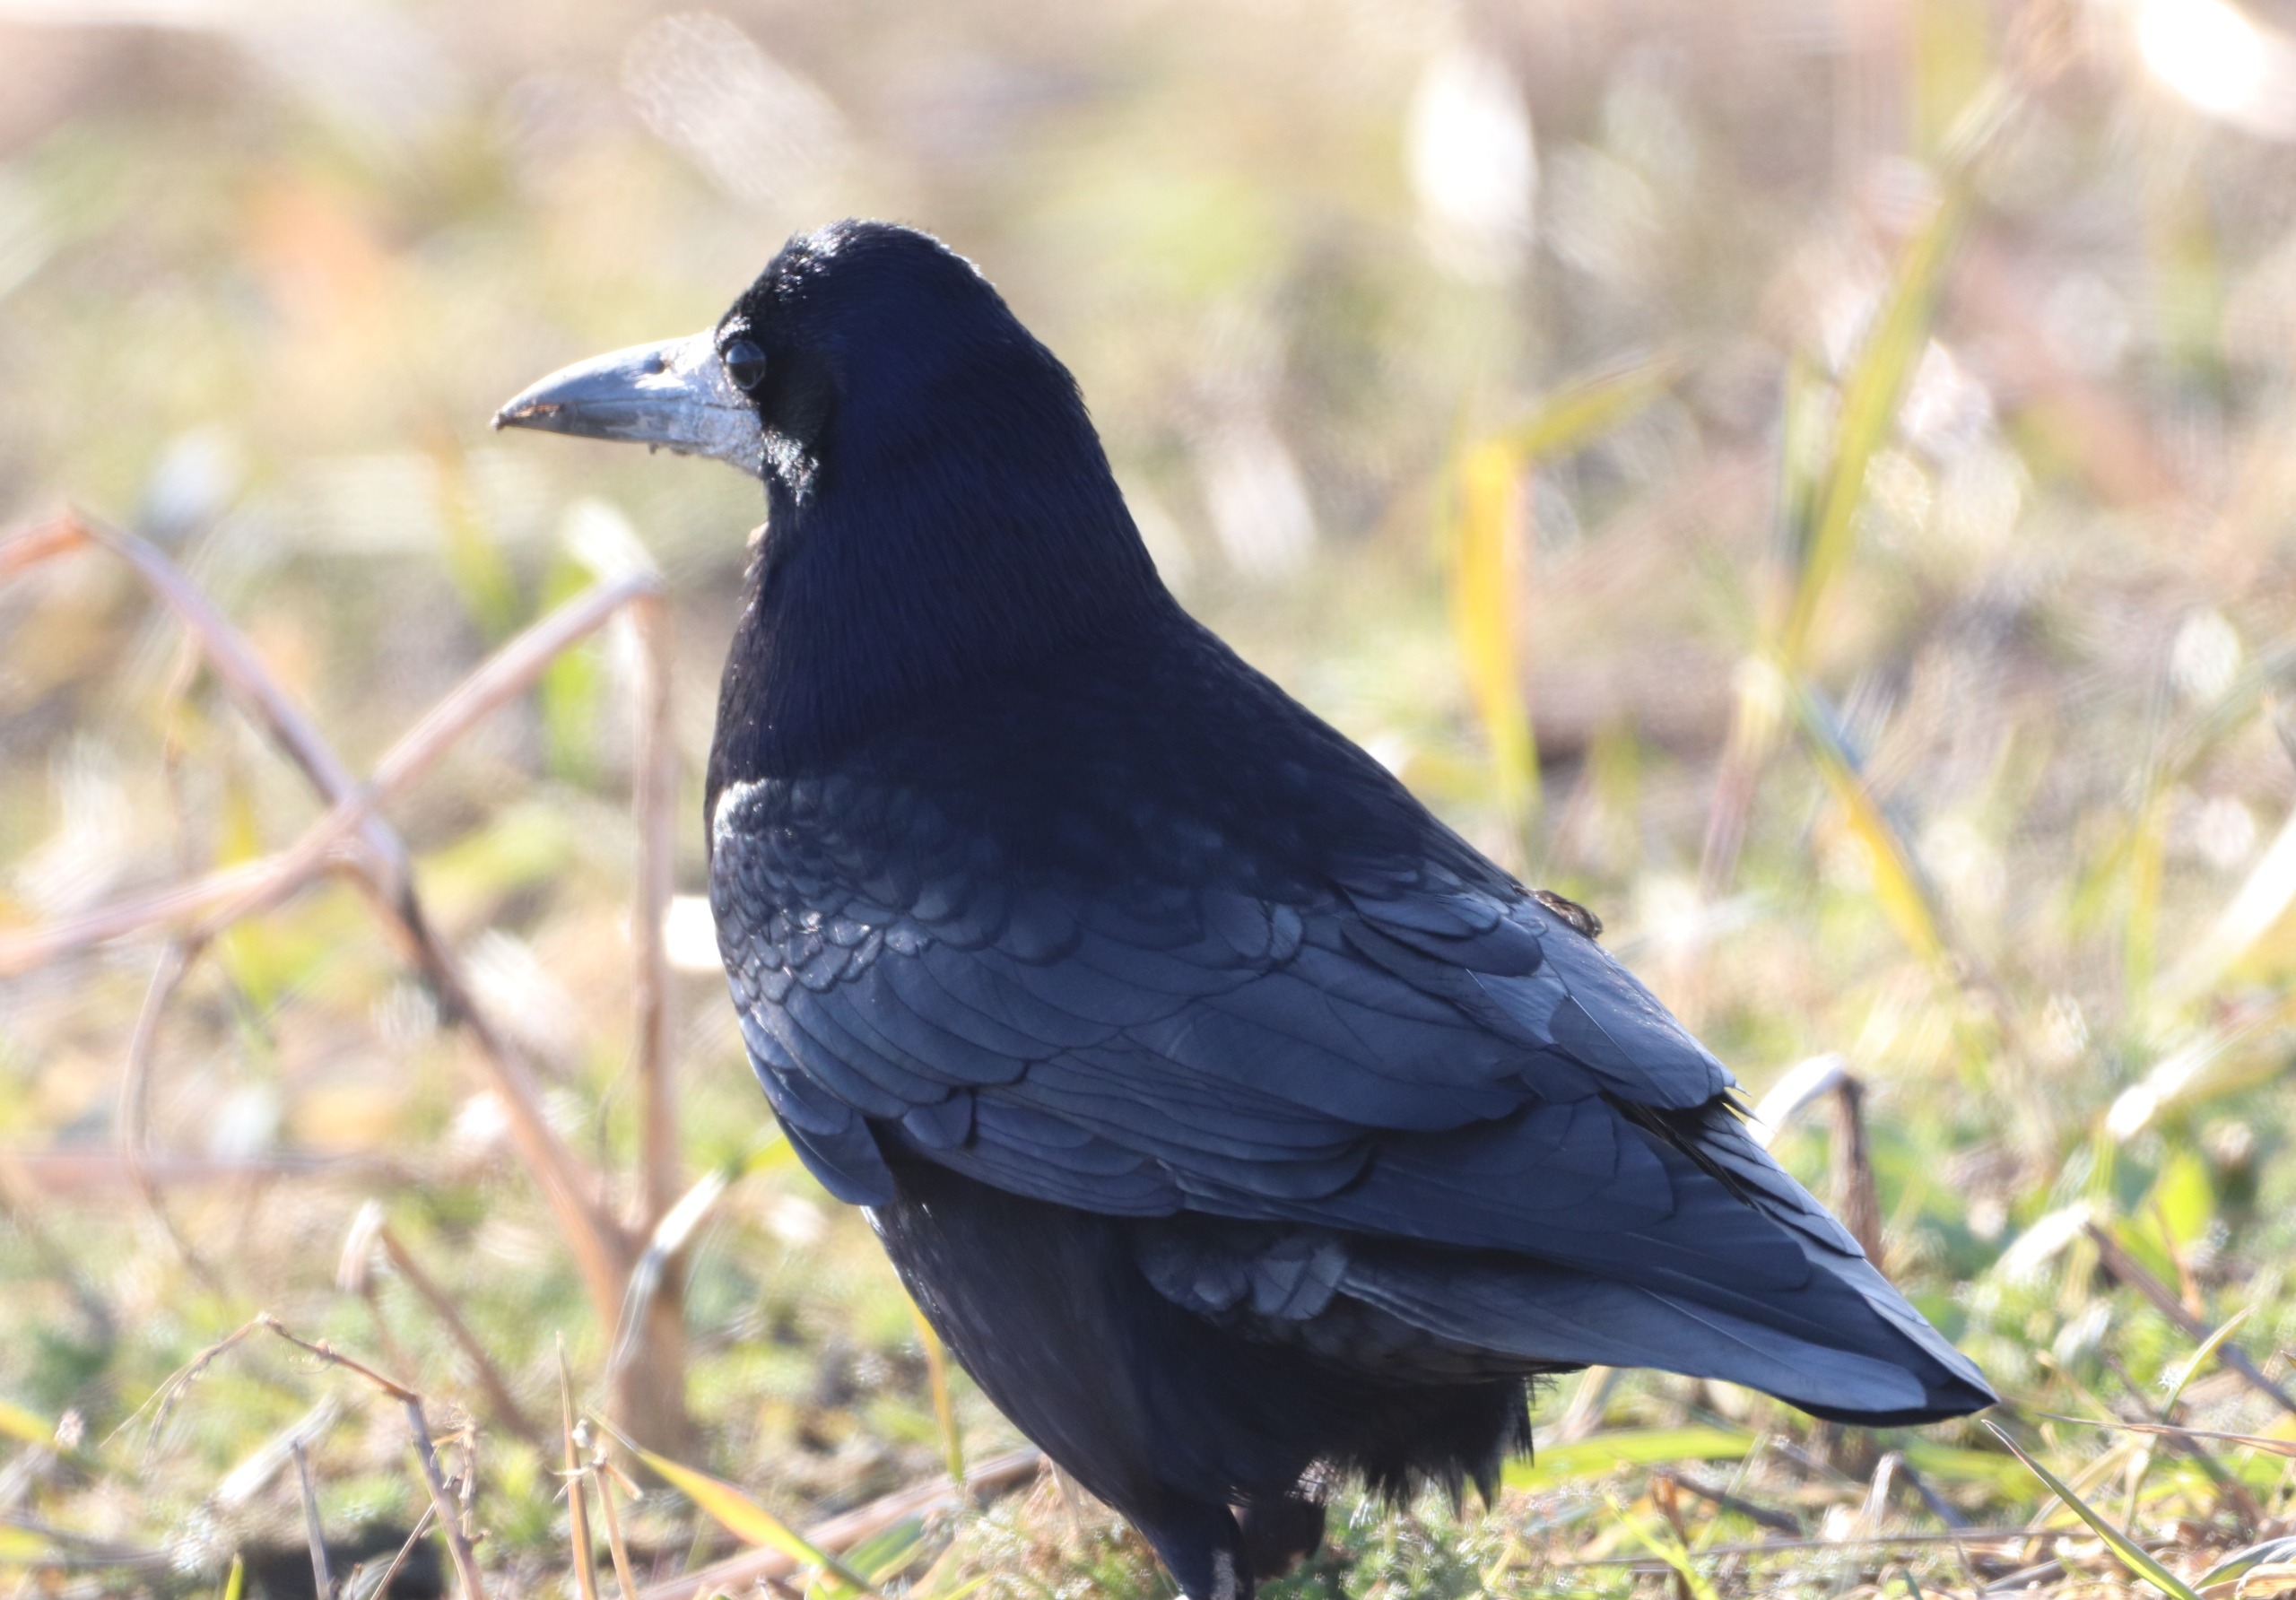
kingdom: Animalia
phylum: Chordata
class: Aves
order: Passeriformes
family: Corvidae
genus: Corvus
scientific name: Corvus frugilegus
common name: Råge
